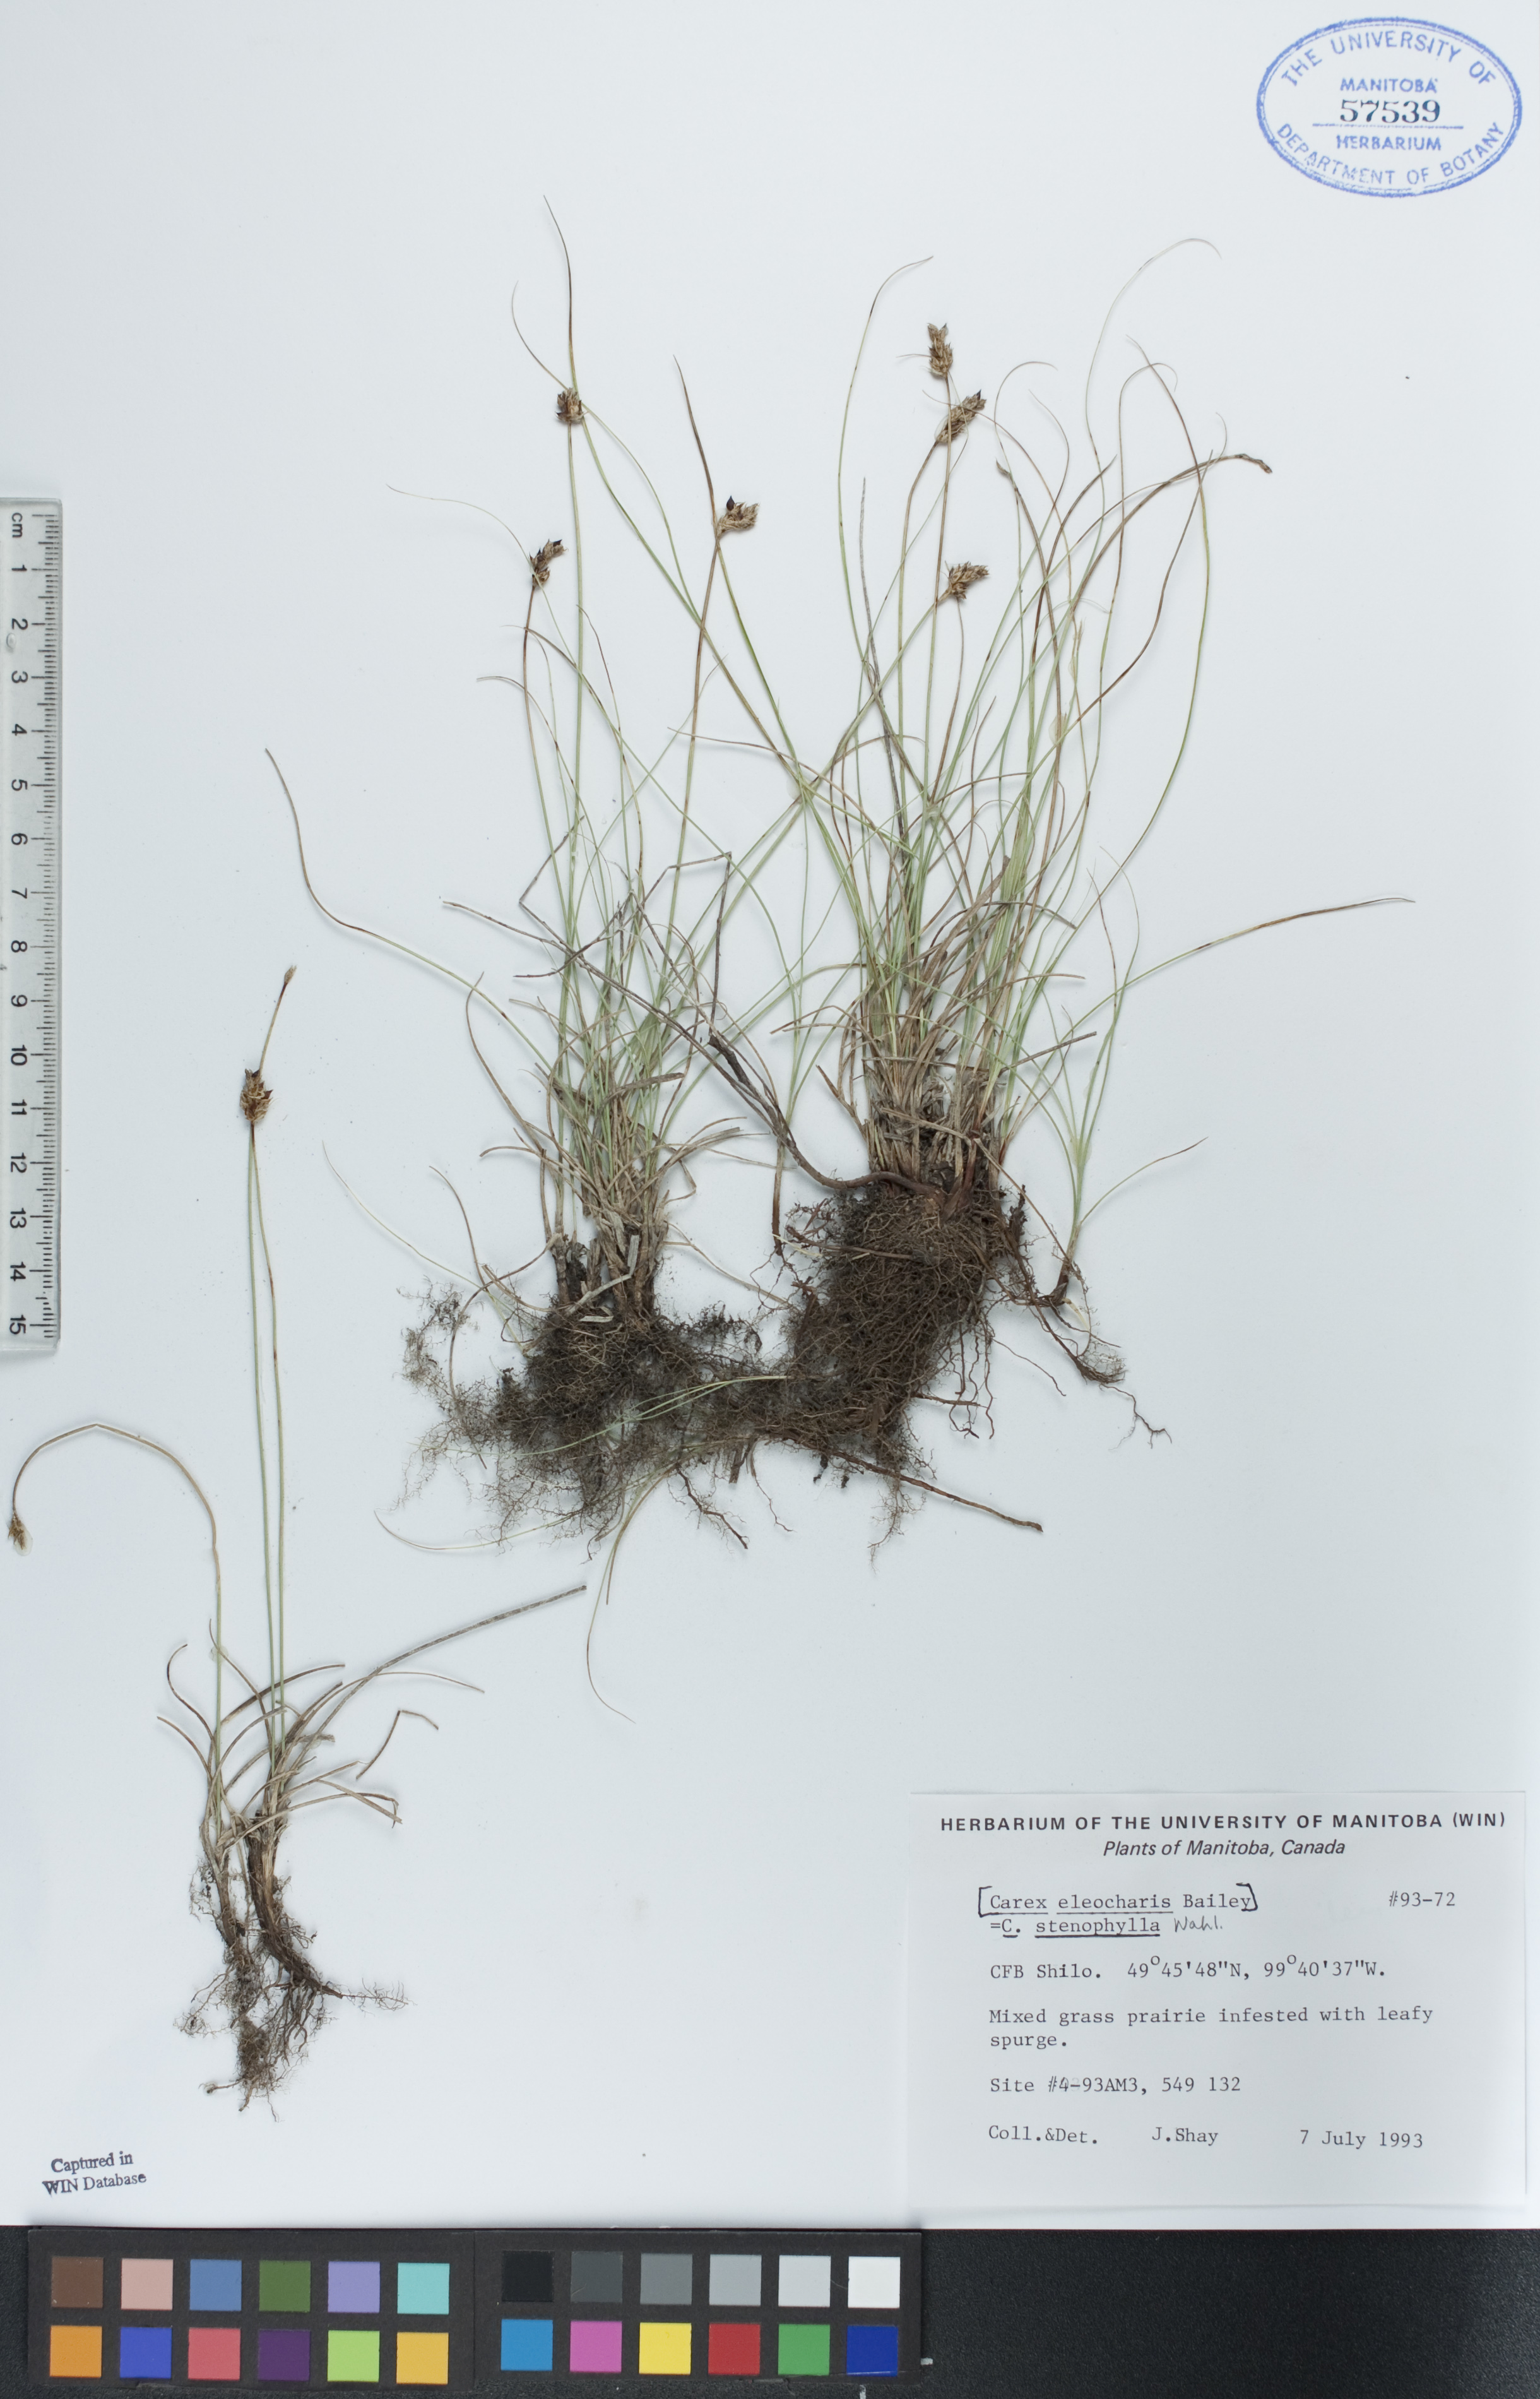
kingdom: Plantae
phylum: Tracheophyta
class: Liliopsida
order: Poales
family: Cyperaceae
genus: Carex
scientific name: Carex duriuscula
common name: Involute-leaved sedge
